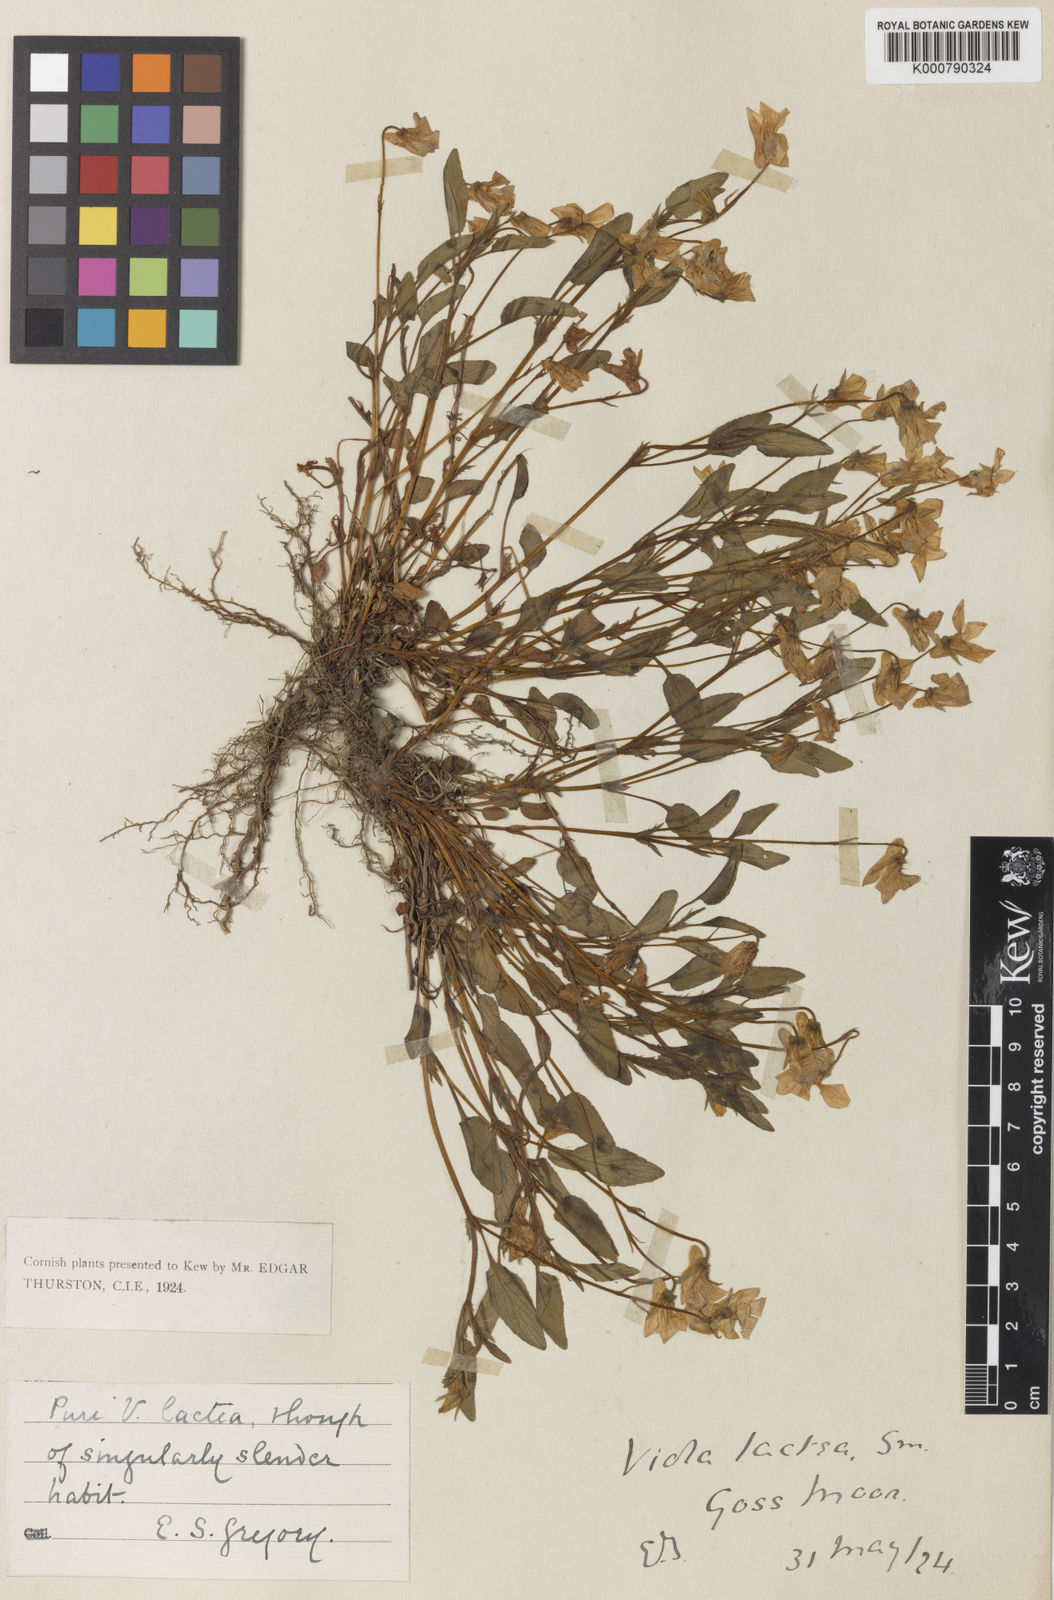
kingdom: Plantae
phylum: Tracheophyta
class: Magnoliopsida
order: Malpighiales
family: Violaceae
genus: Viola
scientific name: Viola lactea
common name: Pale dog-violet
